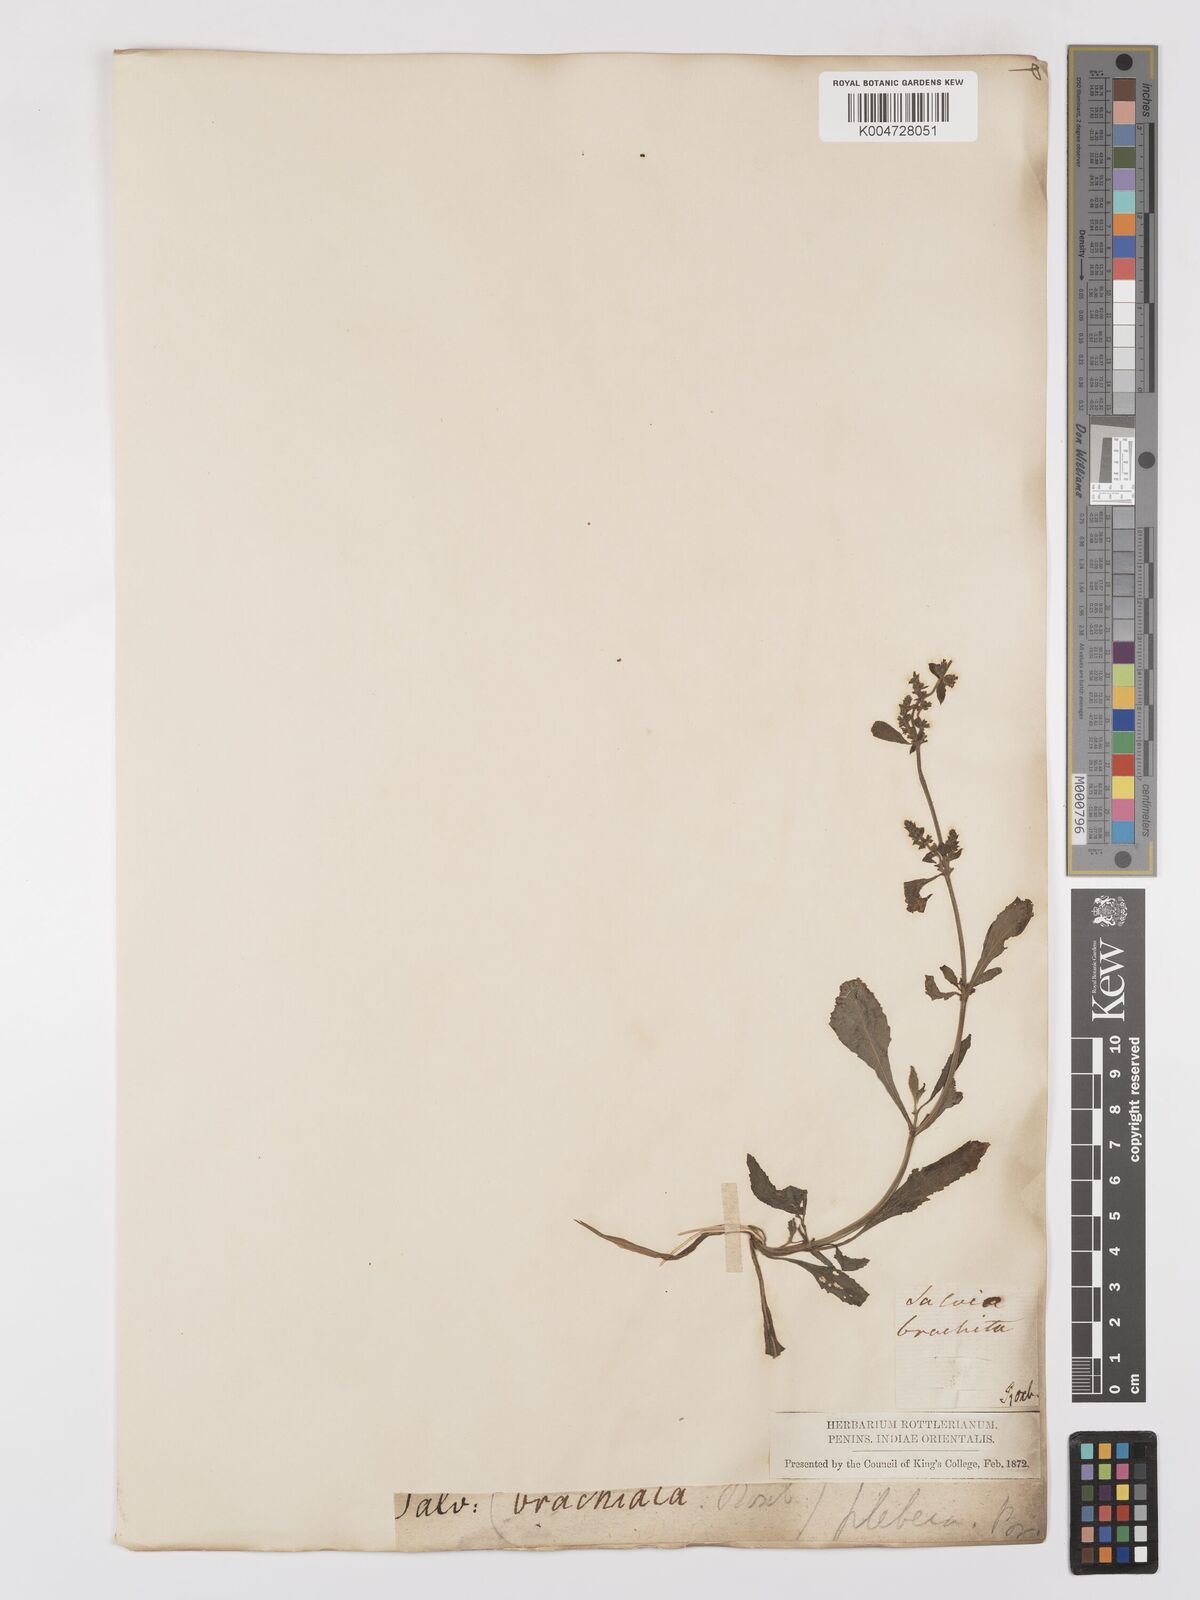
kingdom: Plantae
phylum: Tracheophyta
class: Magnoliopsida
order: Lamiales
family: Lamiaceae
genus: Salvia
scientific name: Salvia plebeia
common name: Australian sage
